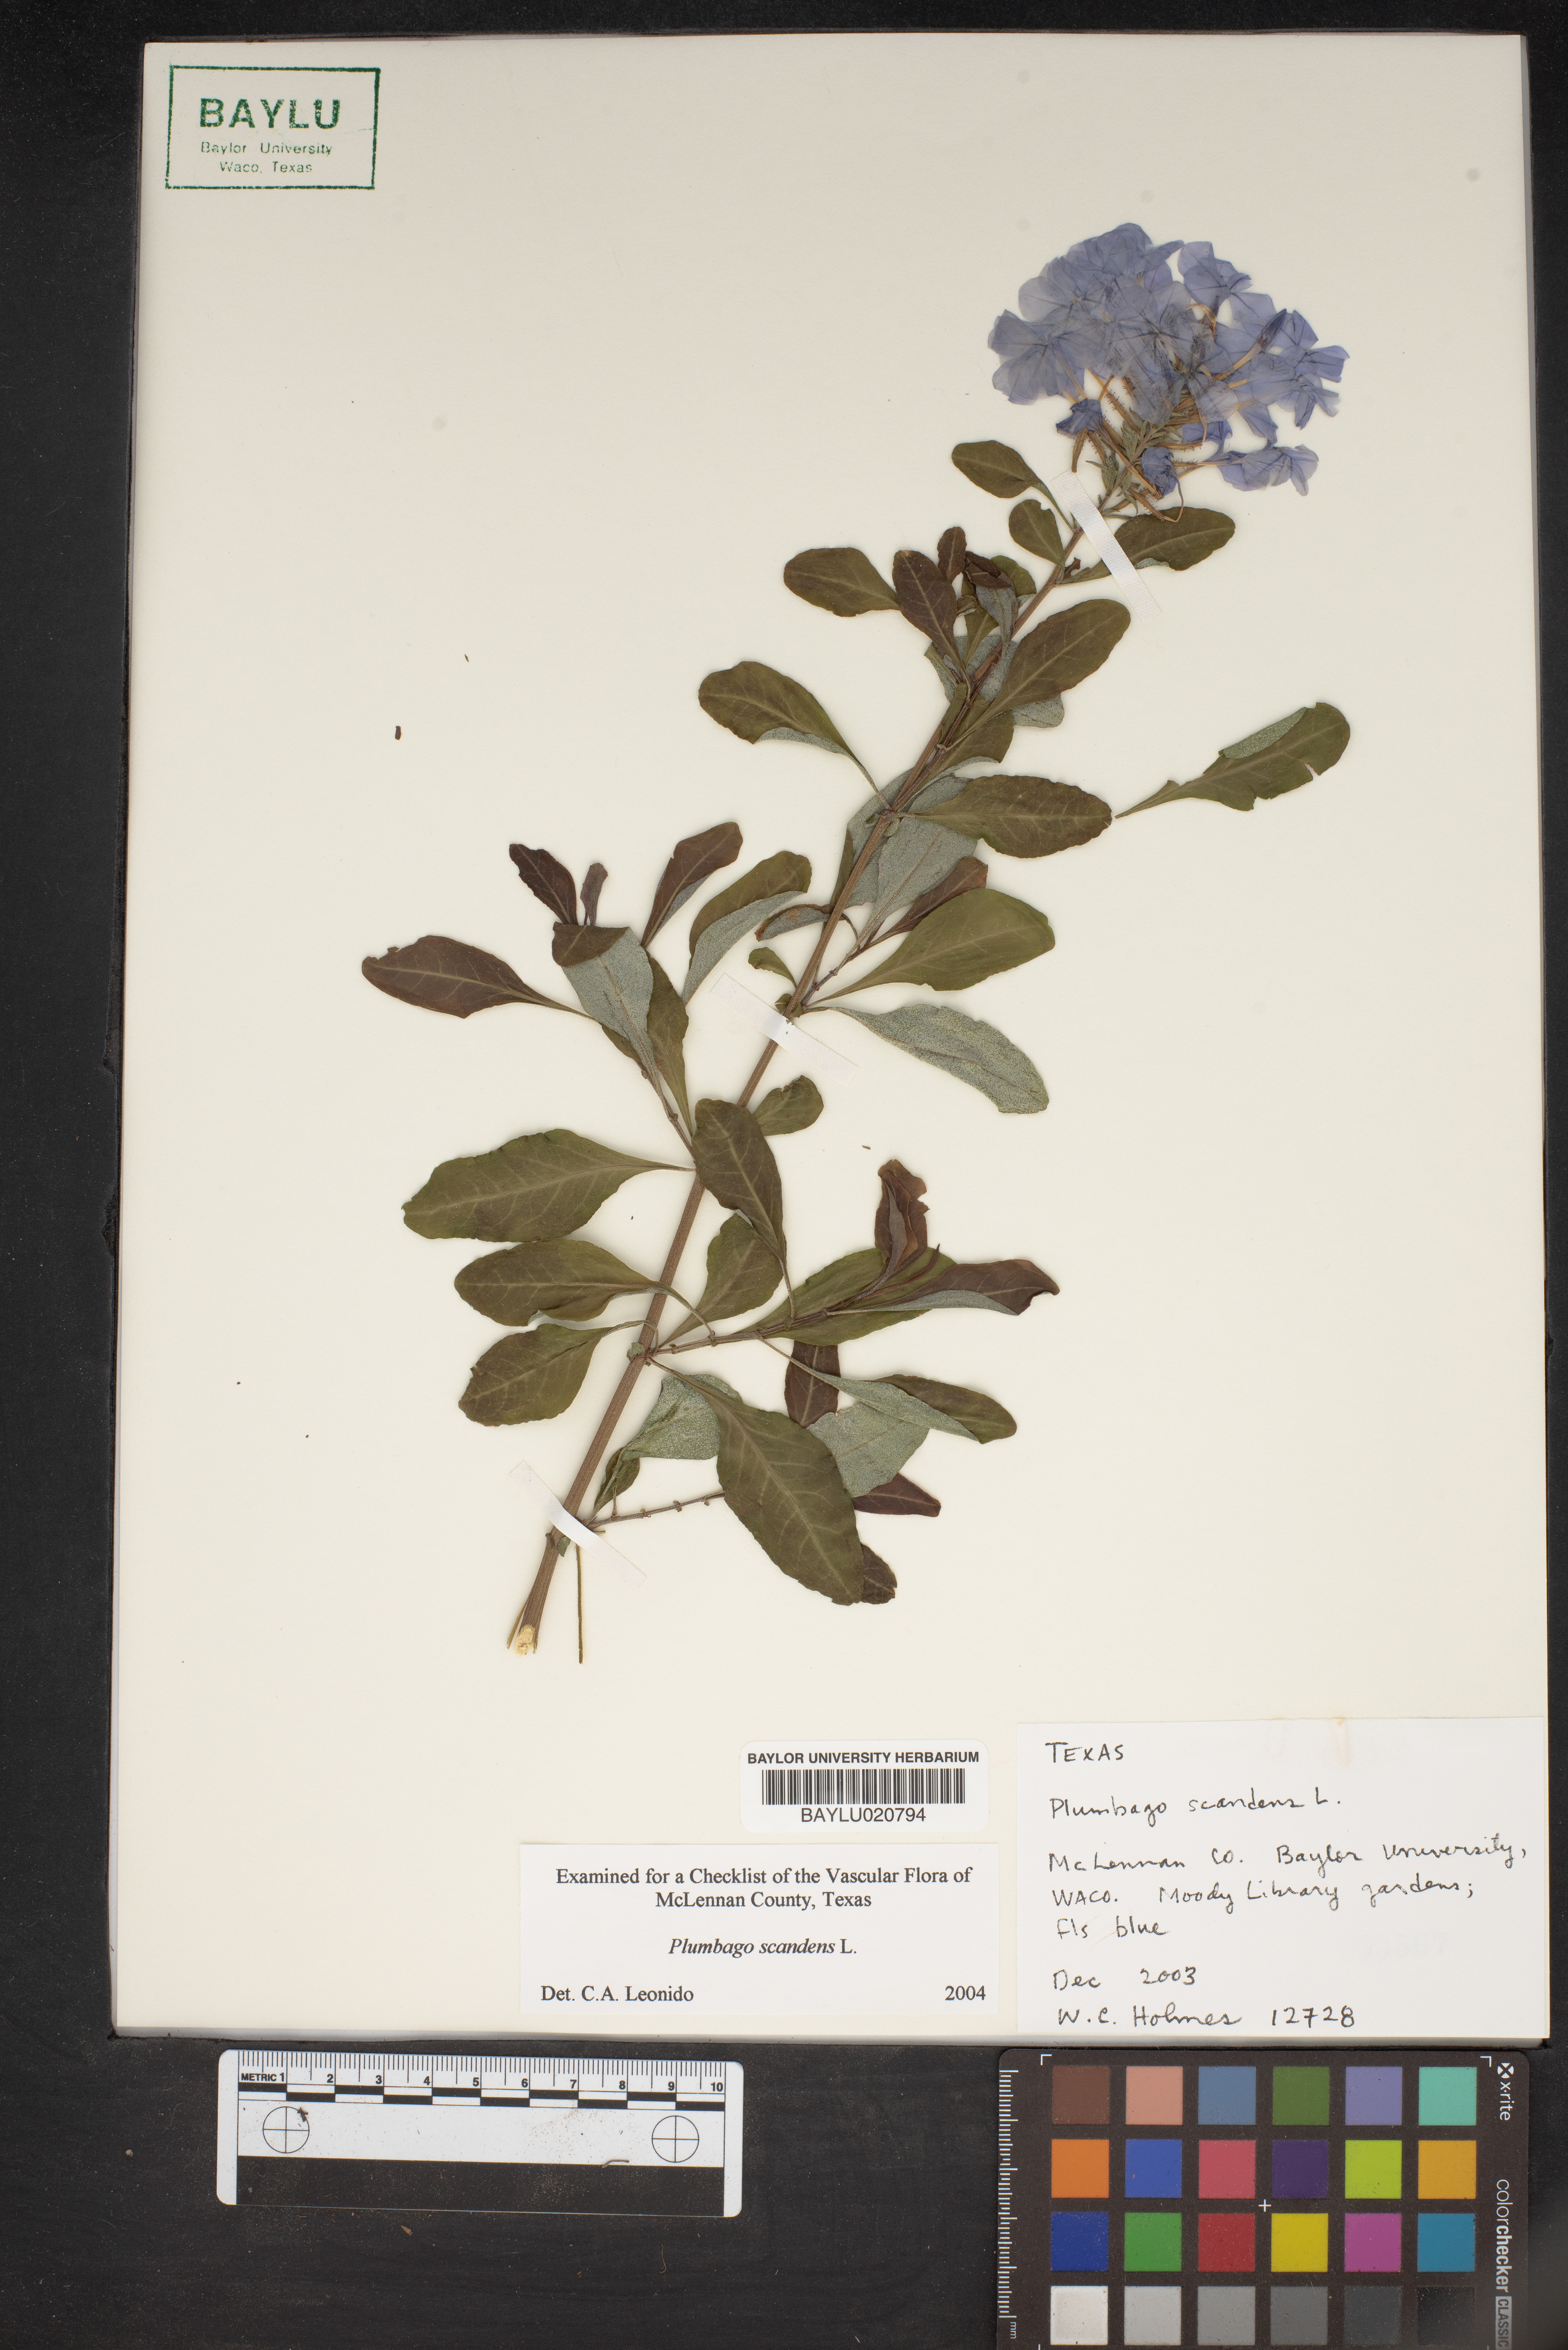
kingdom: Plantae
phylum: Tracheophyta
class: Magnoliopsida
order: Caryophyllales
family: Plumbaginaceae
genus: Plumbago
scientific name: Plumbago zeylanica
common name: Doctorbush
